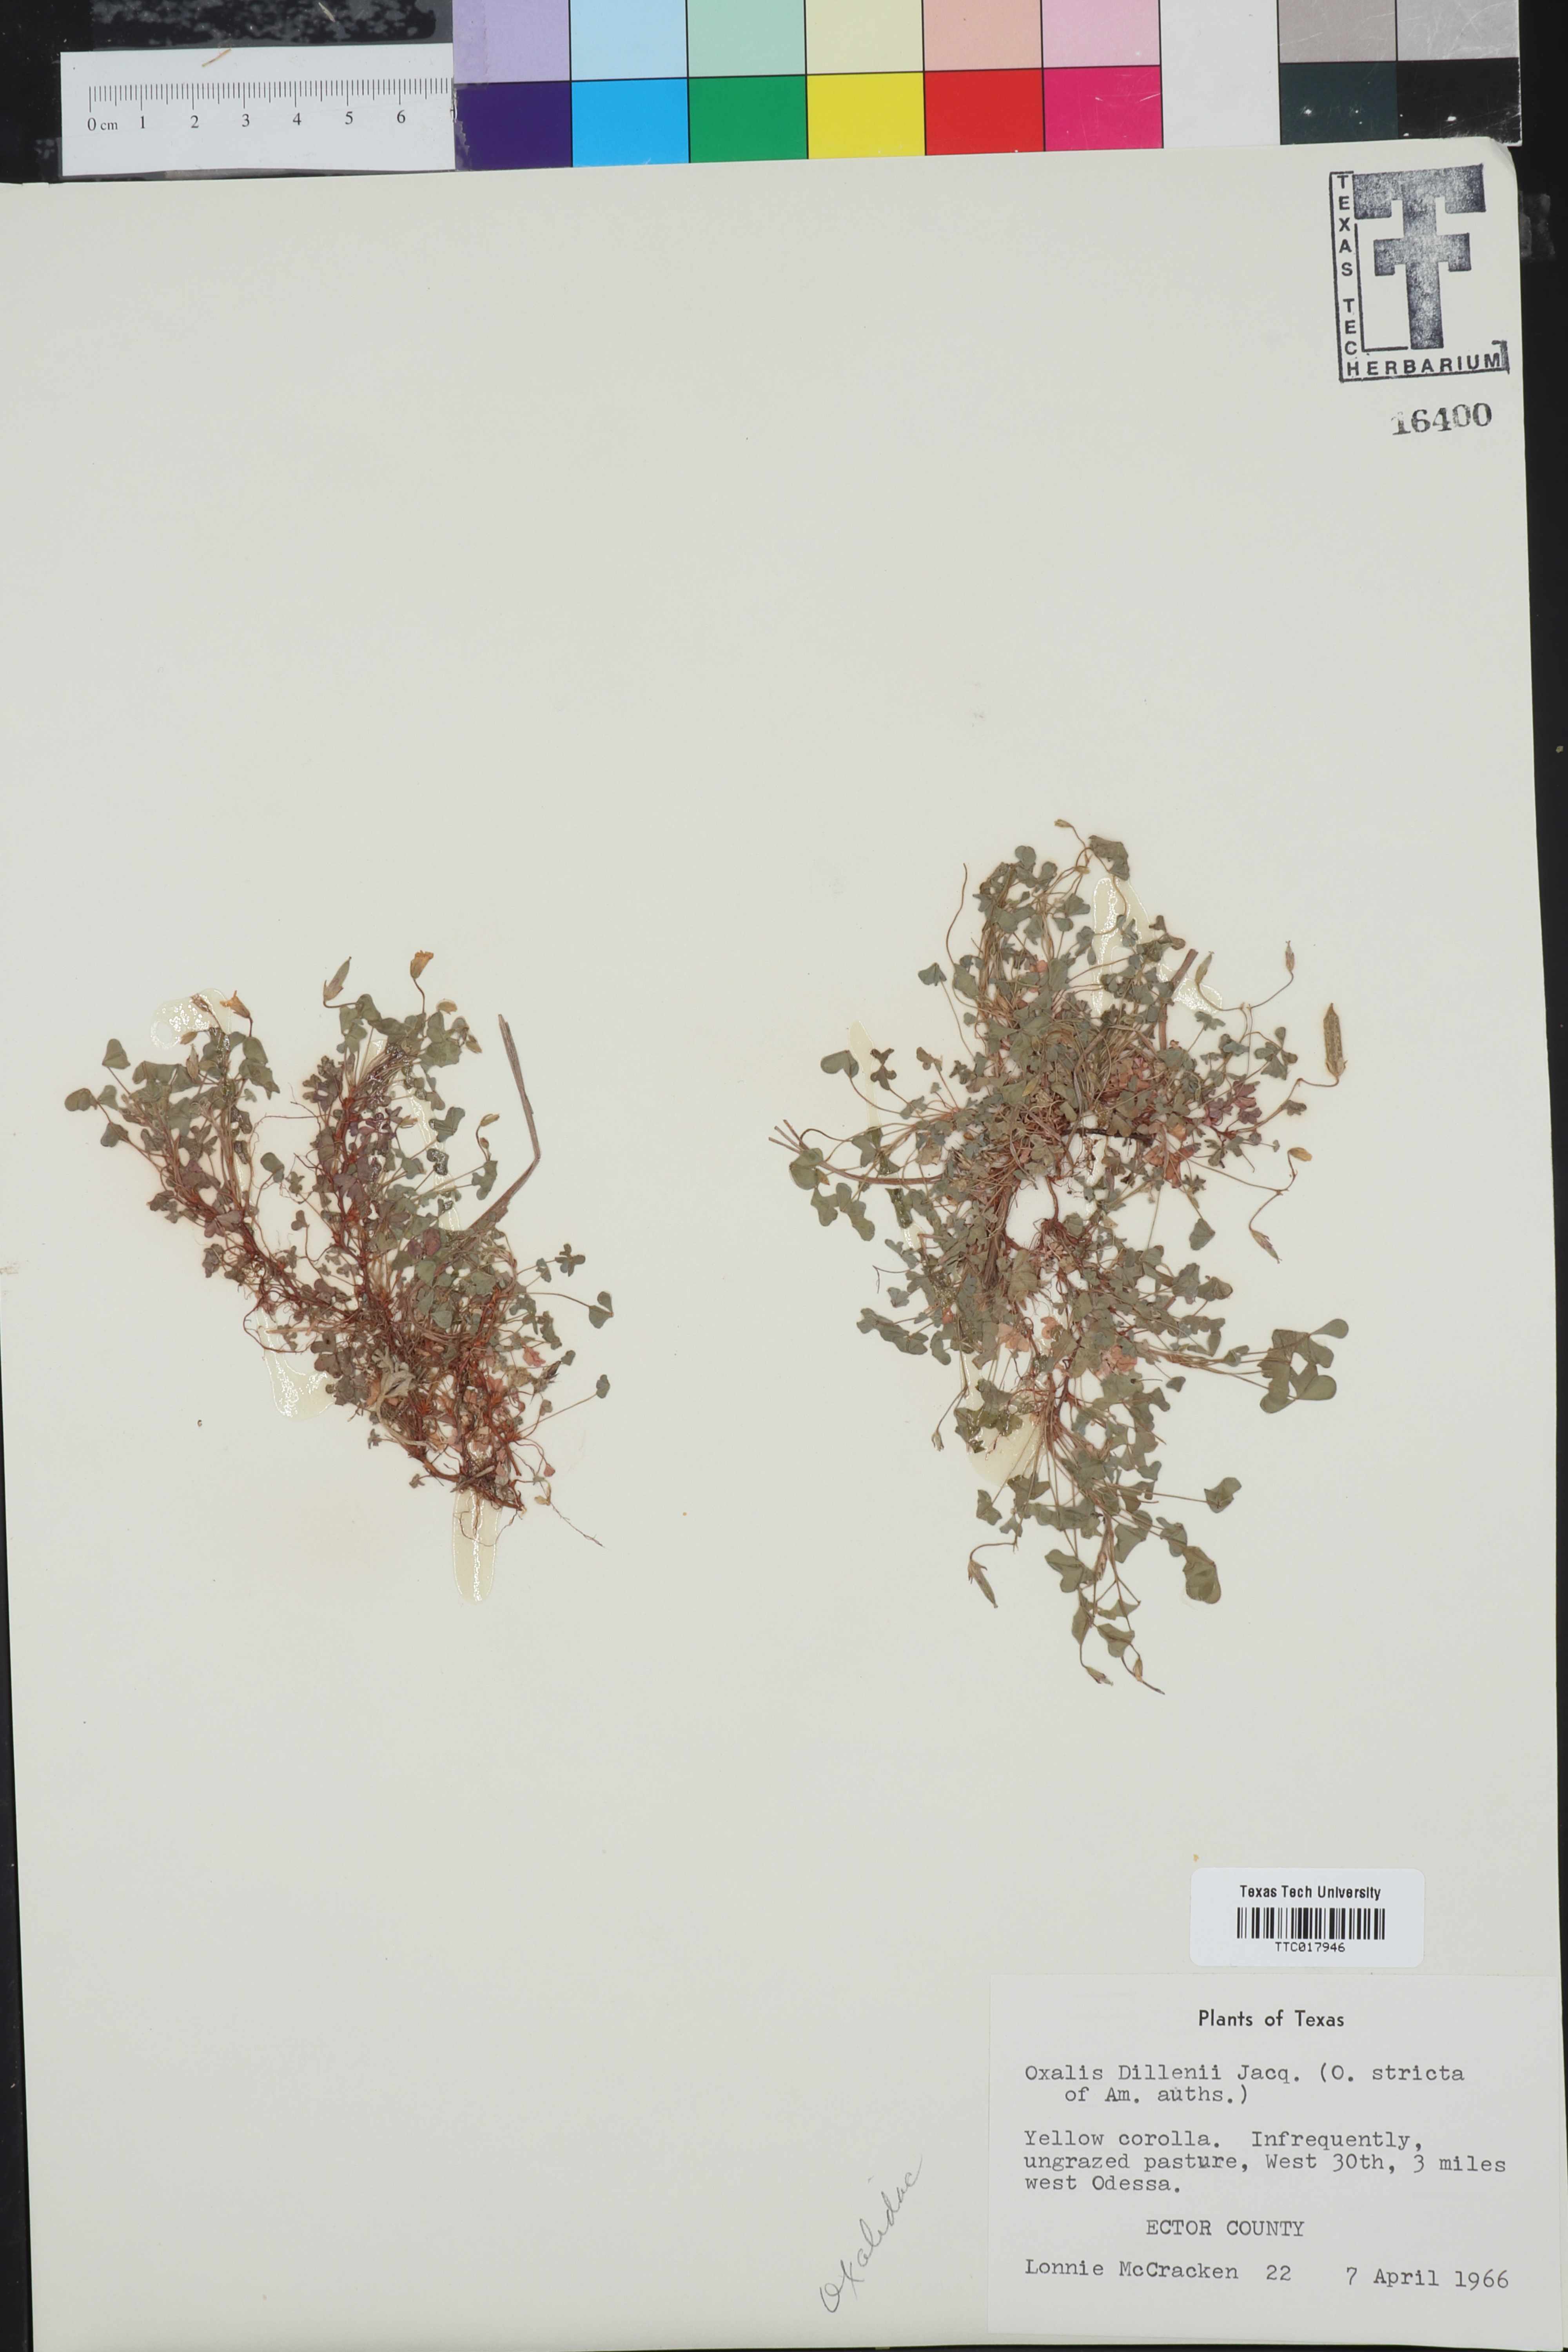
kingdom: Plantae
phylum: Tracheophyta
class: Magnoliopsida
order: Oxalidales
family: Oxalidaceae
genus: Oxalis
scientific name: Oxalis dillenii
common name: Sussex yellow-sorrel
